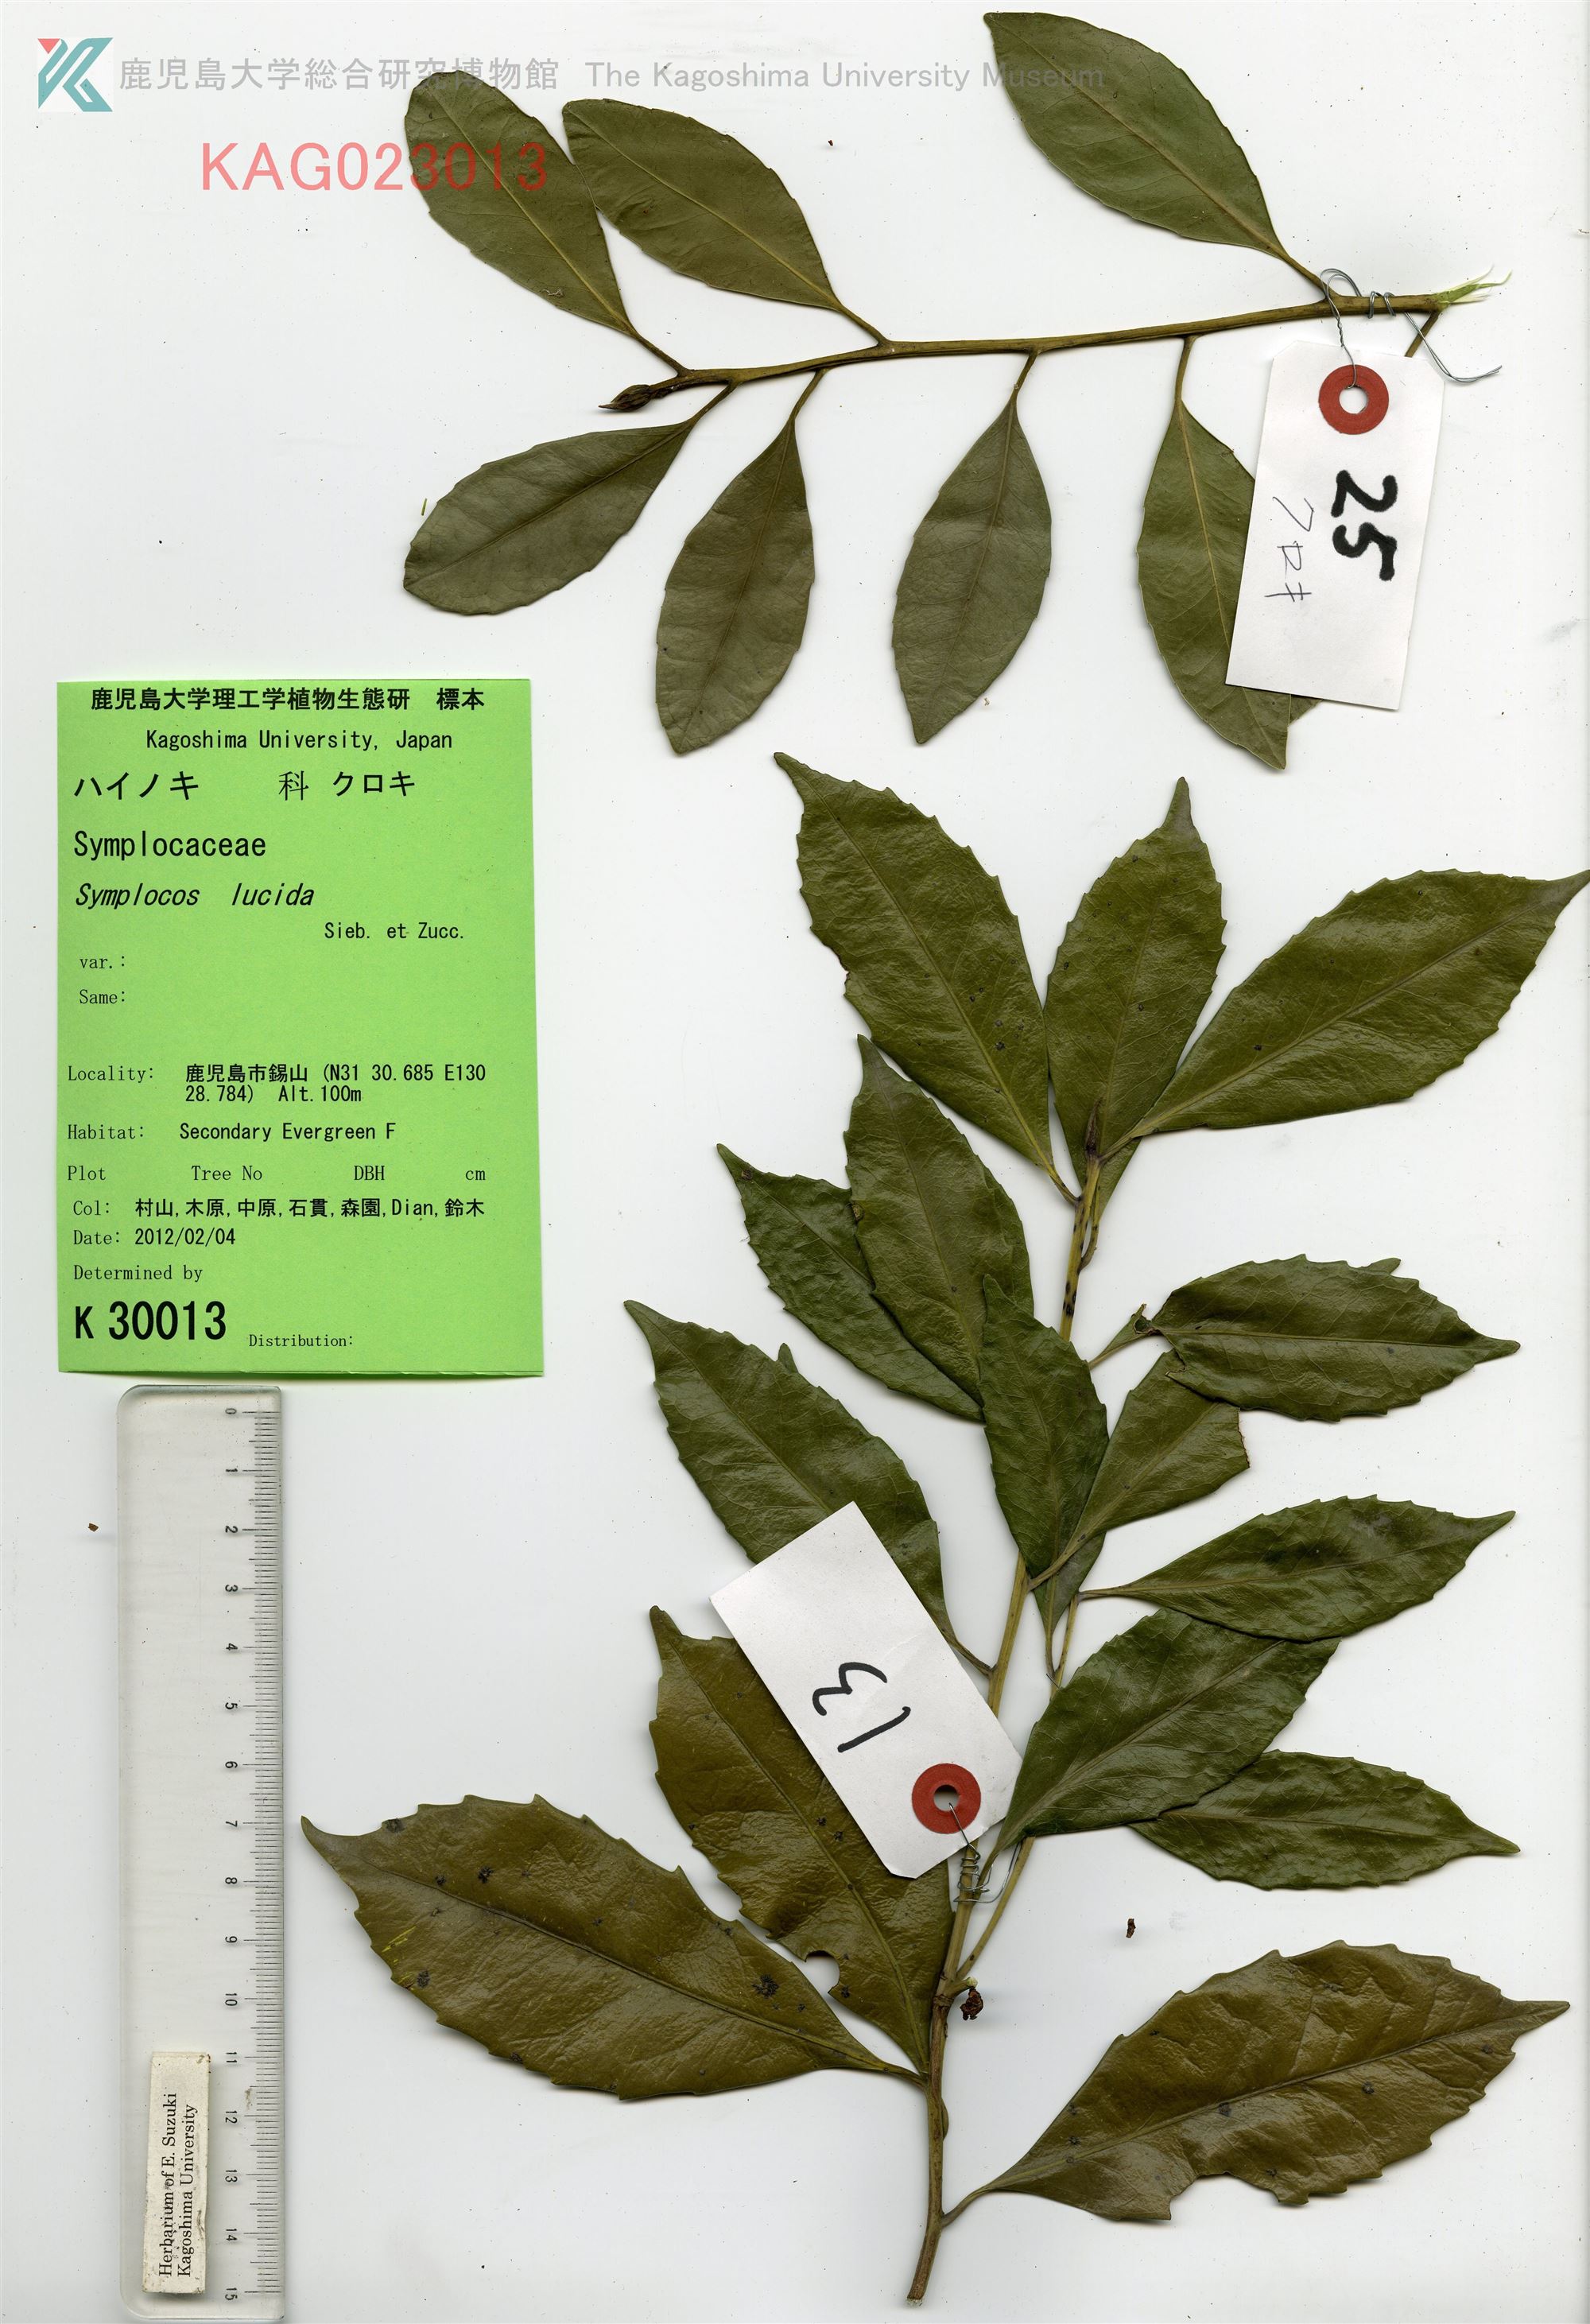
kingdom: Plantae
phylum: Tracheophyta
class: Magnoliopsida
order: Ericales
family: Symplocaceae
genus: Symplocos
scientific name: Symplocos nakaharae
